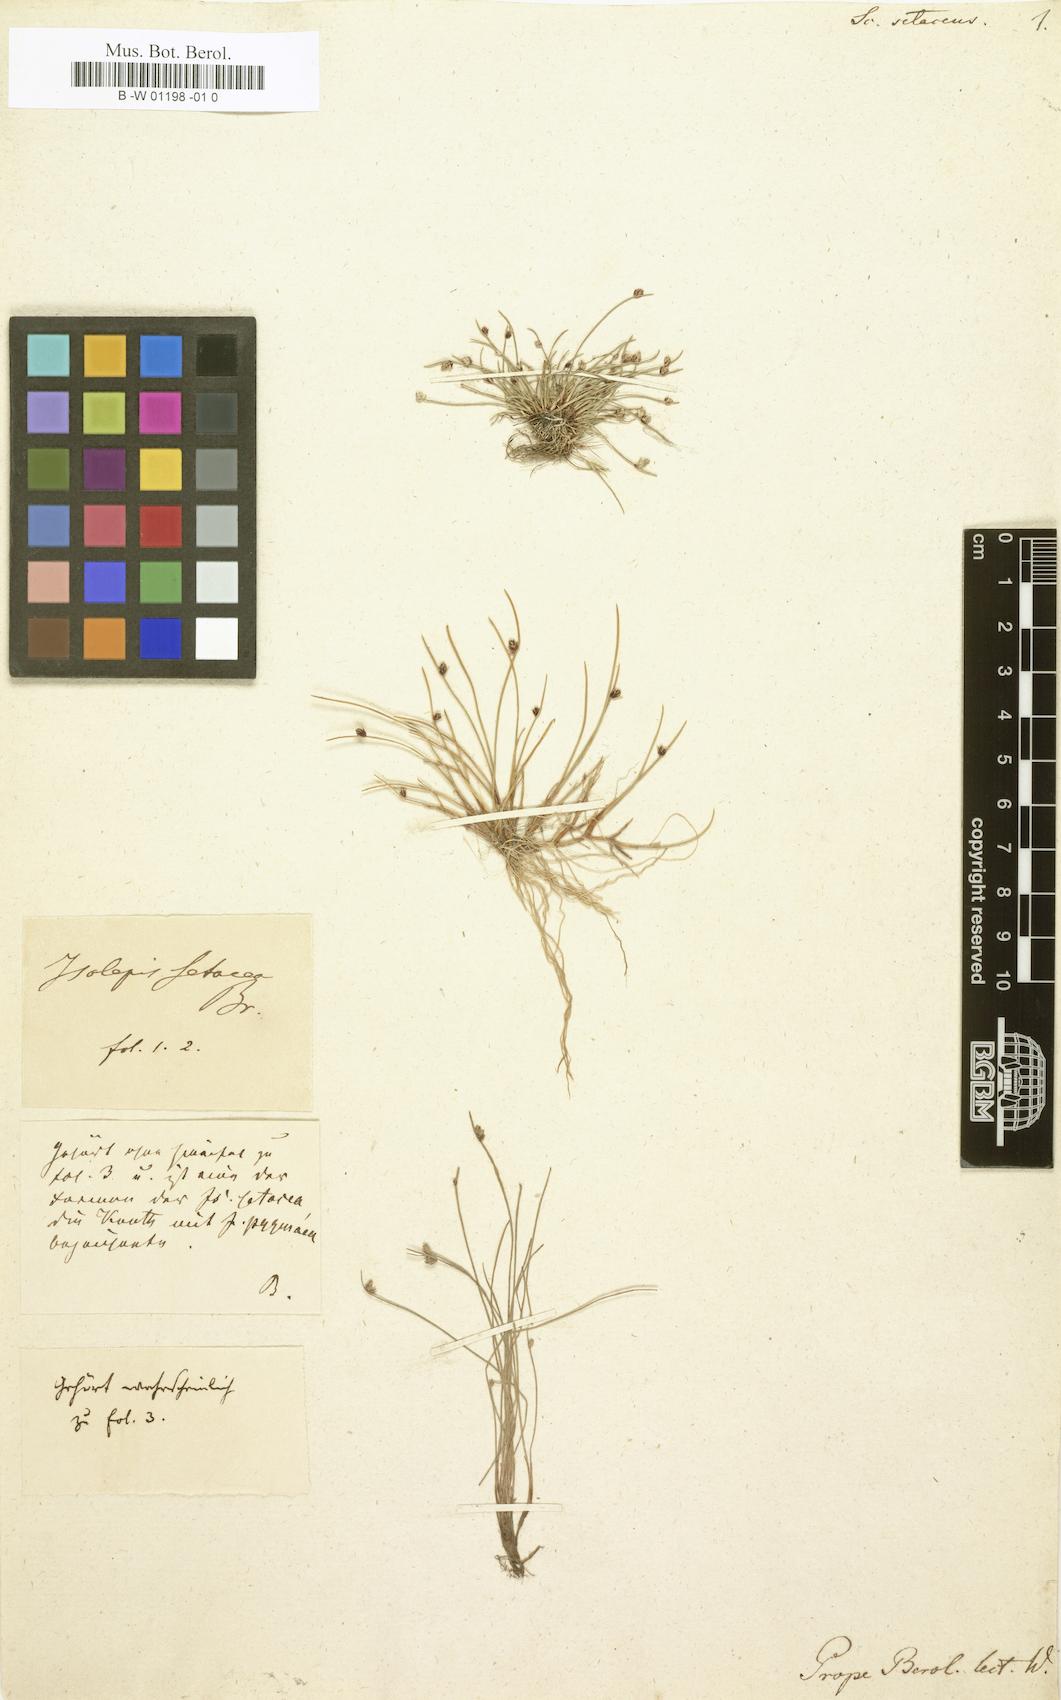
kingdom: Plantae
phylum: Tracheophyta
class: Liliopsida
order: Poales
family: Cyperaceae
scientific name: Cyperaceae
